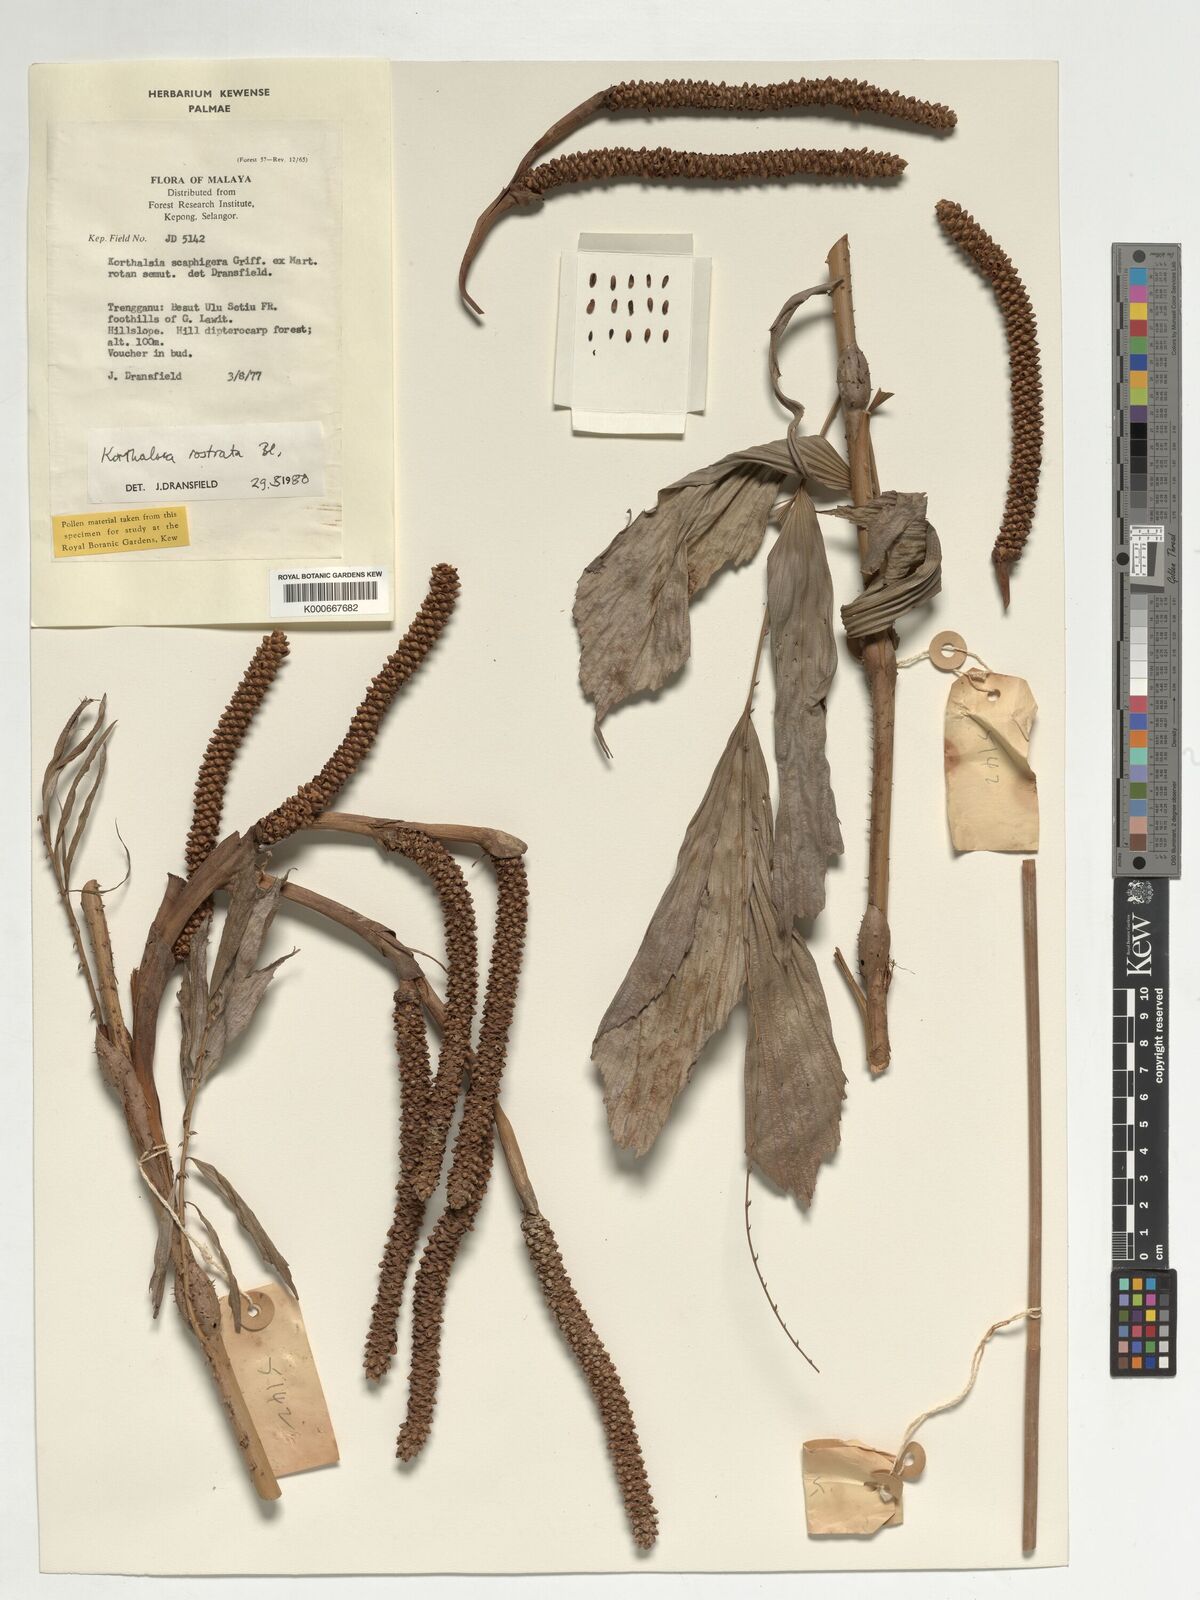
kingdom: Plantae
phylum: Tracheophyta
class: Liliopsida
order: Arecales
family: Arecaceae
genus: Korthalsia
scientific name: Korthalsia rostrata
